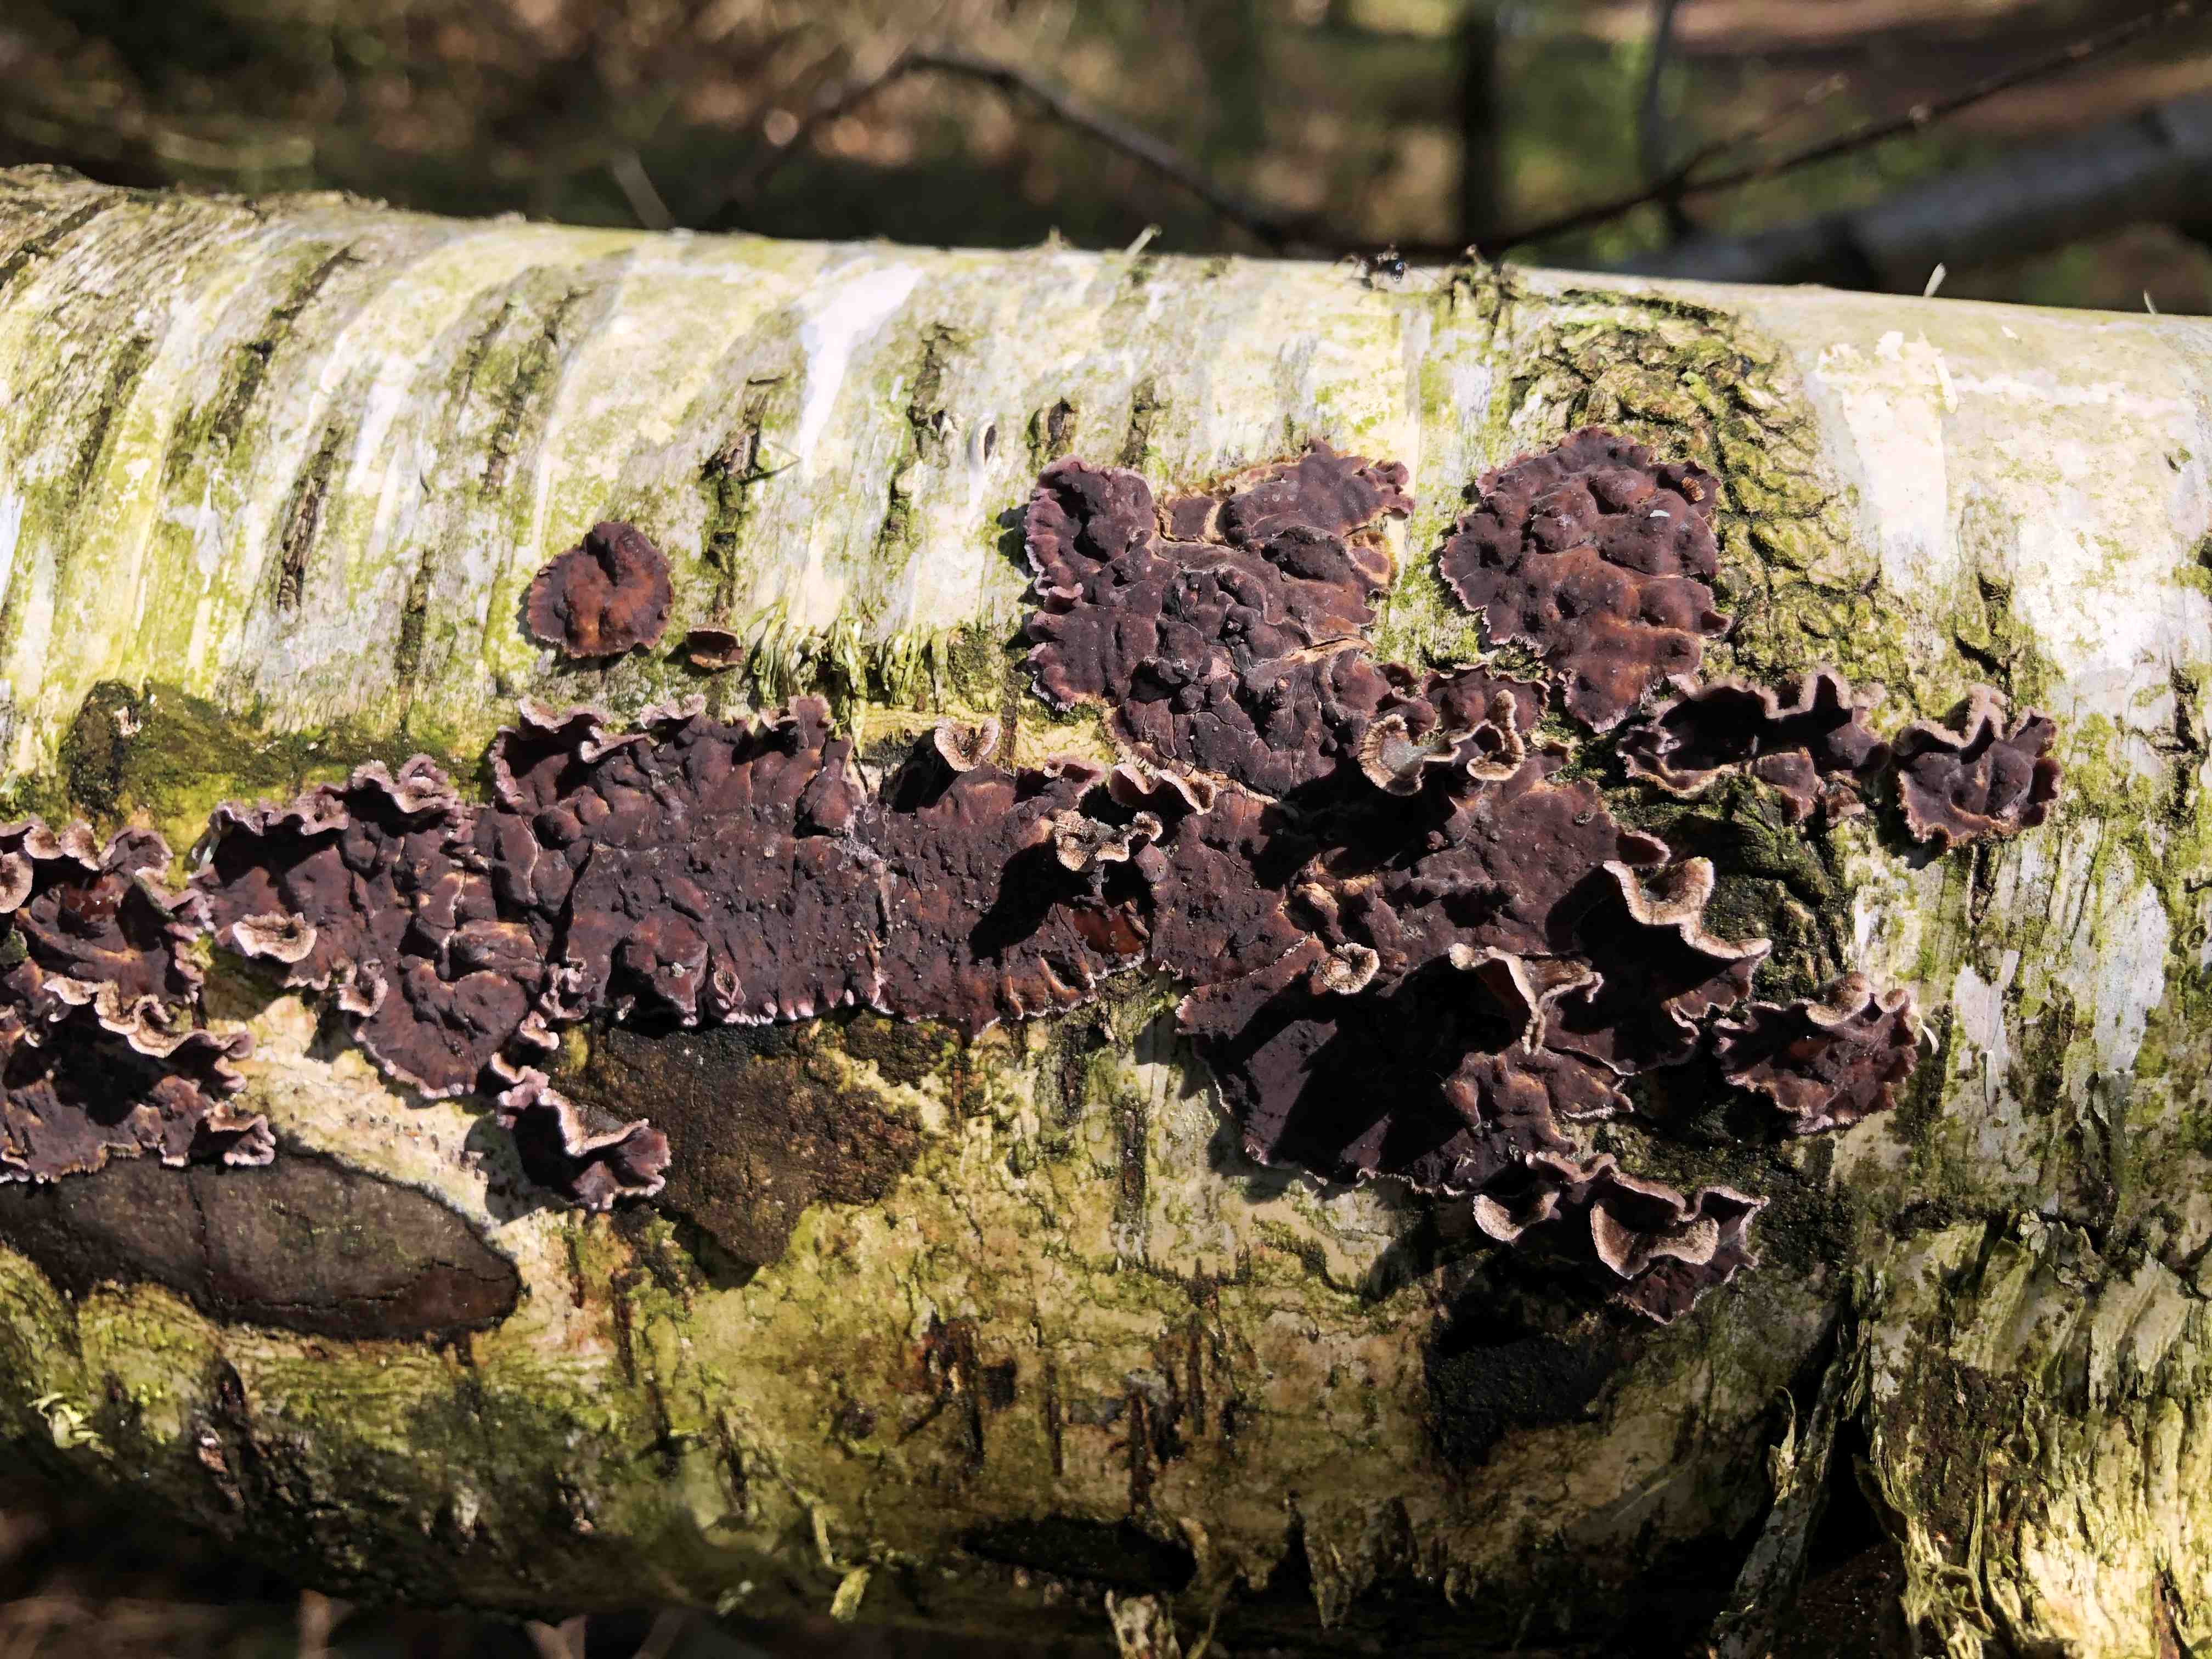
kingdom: Fungi
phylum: Basidiomycota
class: Agaricomycetes
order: Agaricales
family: Cyphellaceae
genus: Chondrostereum
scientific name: Chondrostereum purpureum
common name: purpurlædersvamp
